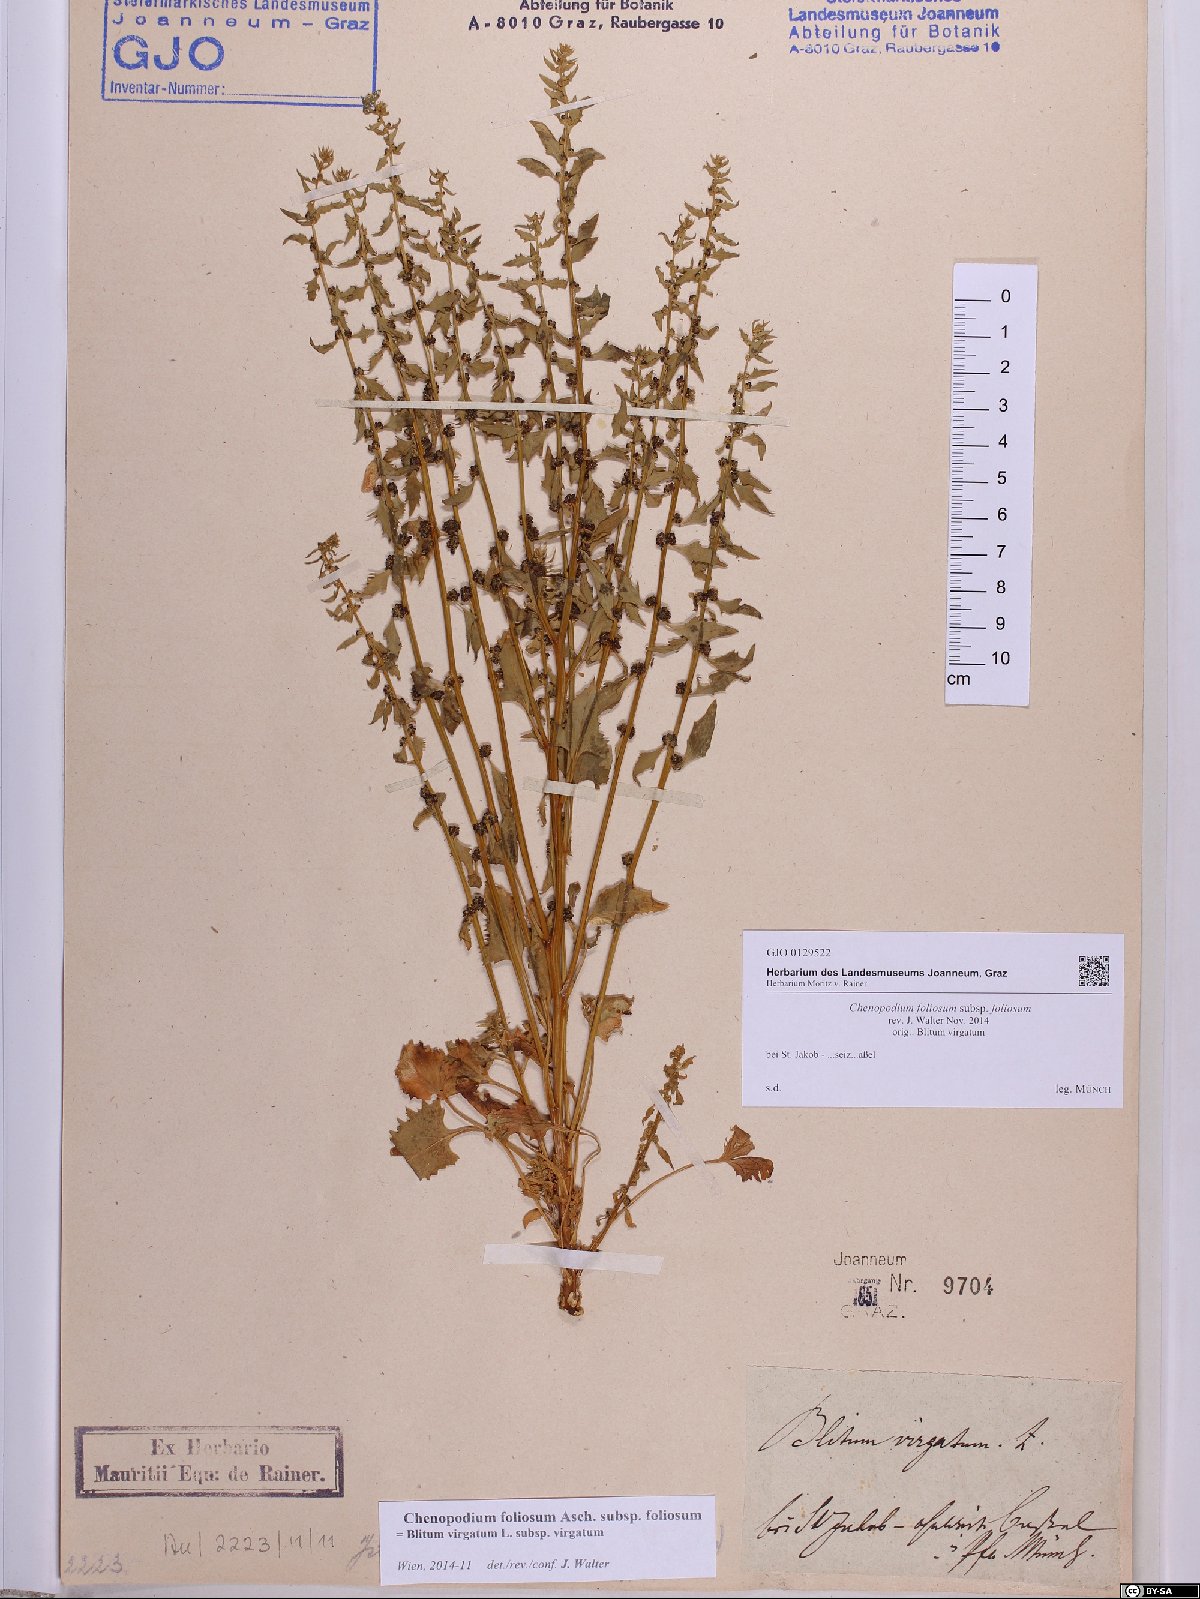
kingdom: Plantae
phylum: Tracheophyta
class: Magnoliopsida
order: Caryophyllales
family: Amaranthaceae
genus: Blitum
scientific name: Blitum virgatum
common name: Strawberry goosefoot
